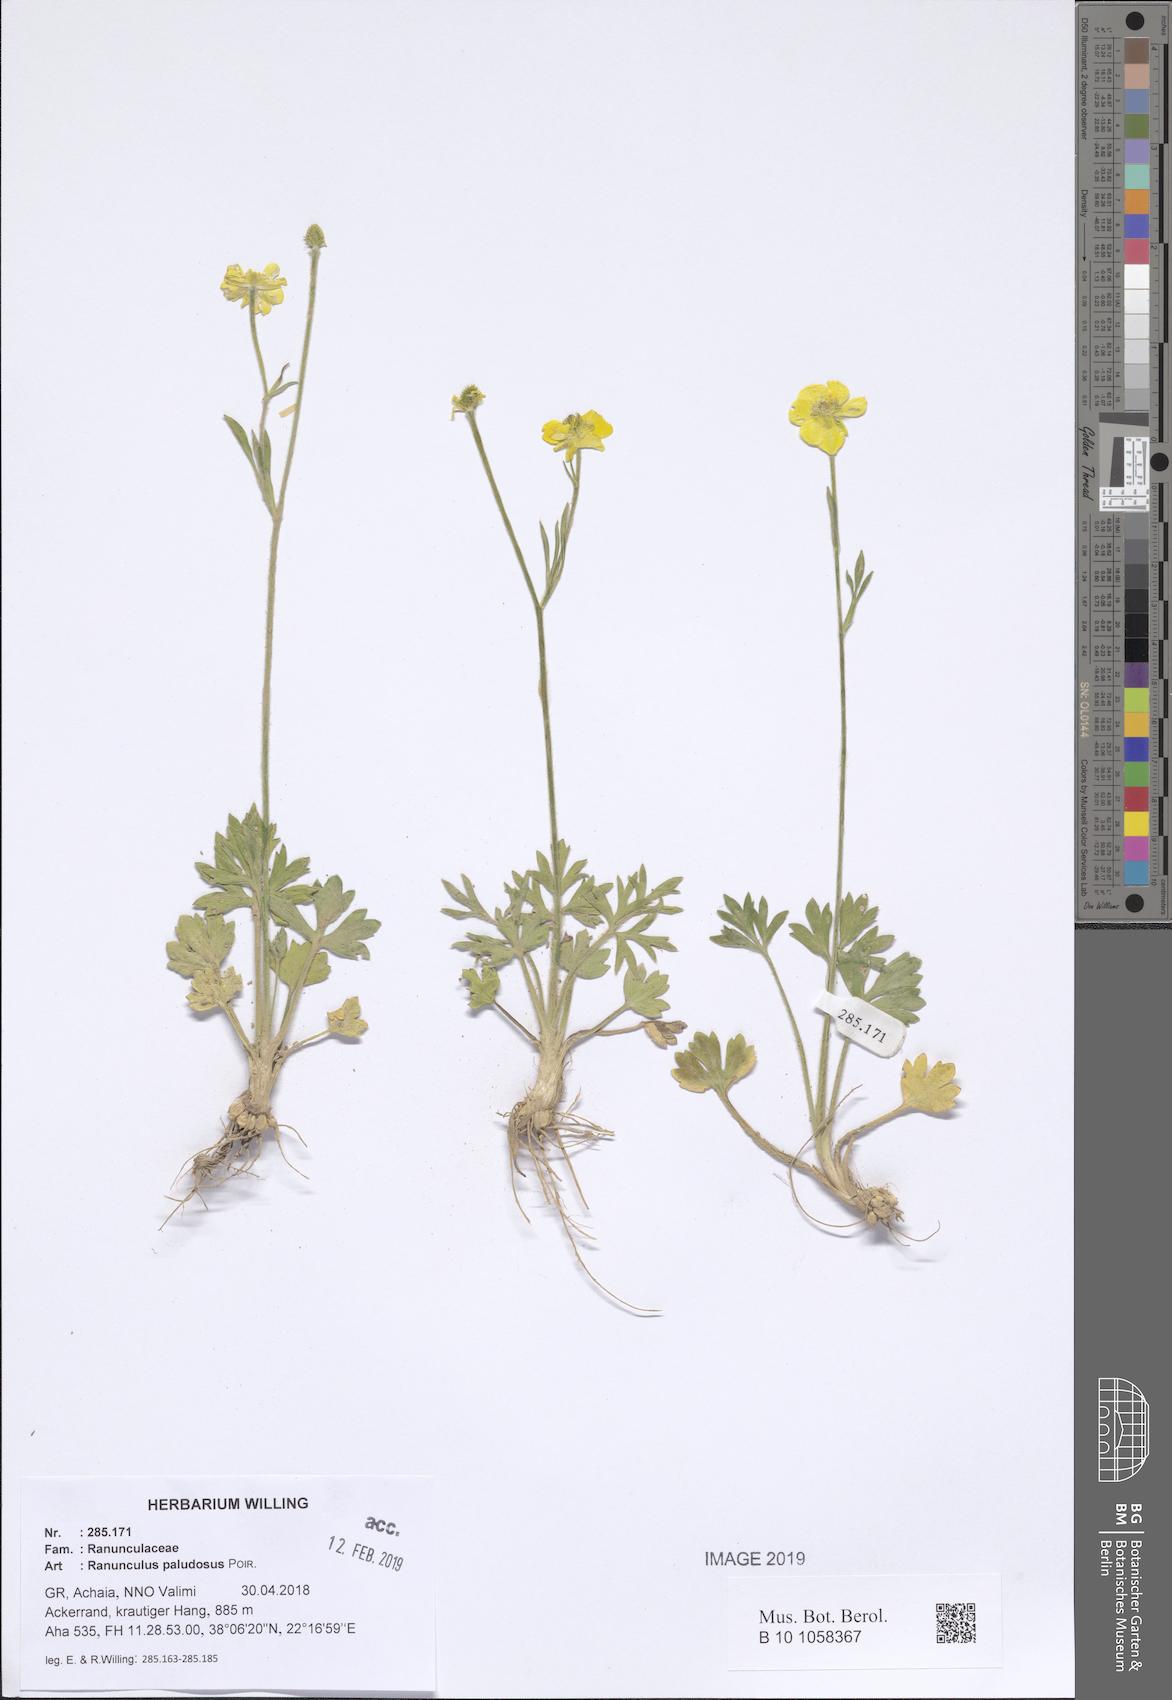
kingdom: Plantae
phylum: Tracheophyta
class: Magnoliopsida
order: Ranunculales
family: Ranunculaceae
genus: Ranunculus
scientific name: Ranunculus paludosus
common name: Jersey buttercup
